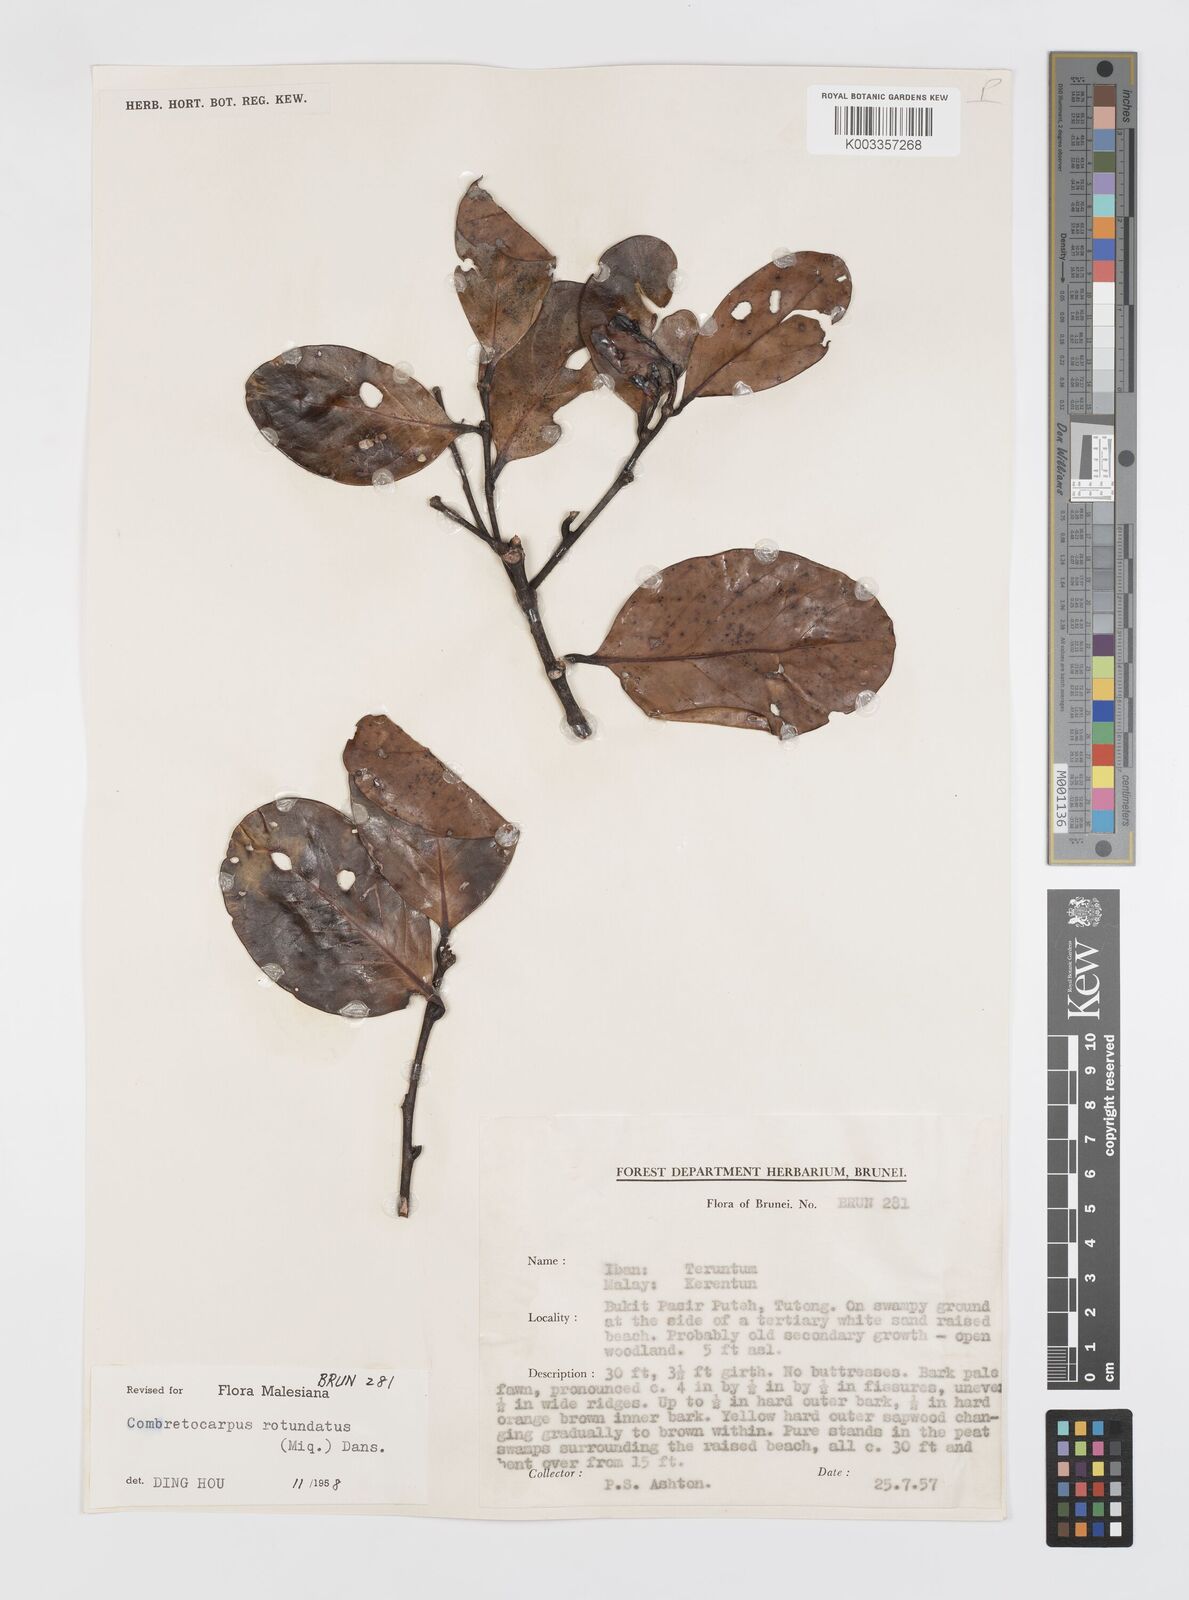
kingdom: Plantae
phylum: Tracheophyta
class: Magnoliopsida
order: Cucurbitales
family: Anisophylleaceae
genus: Combretocarpus
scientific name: Combretocarpus rotundatus
